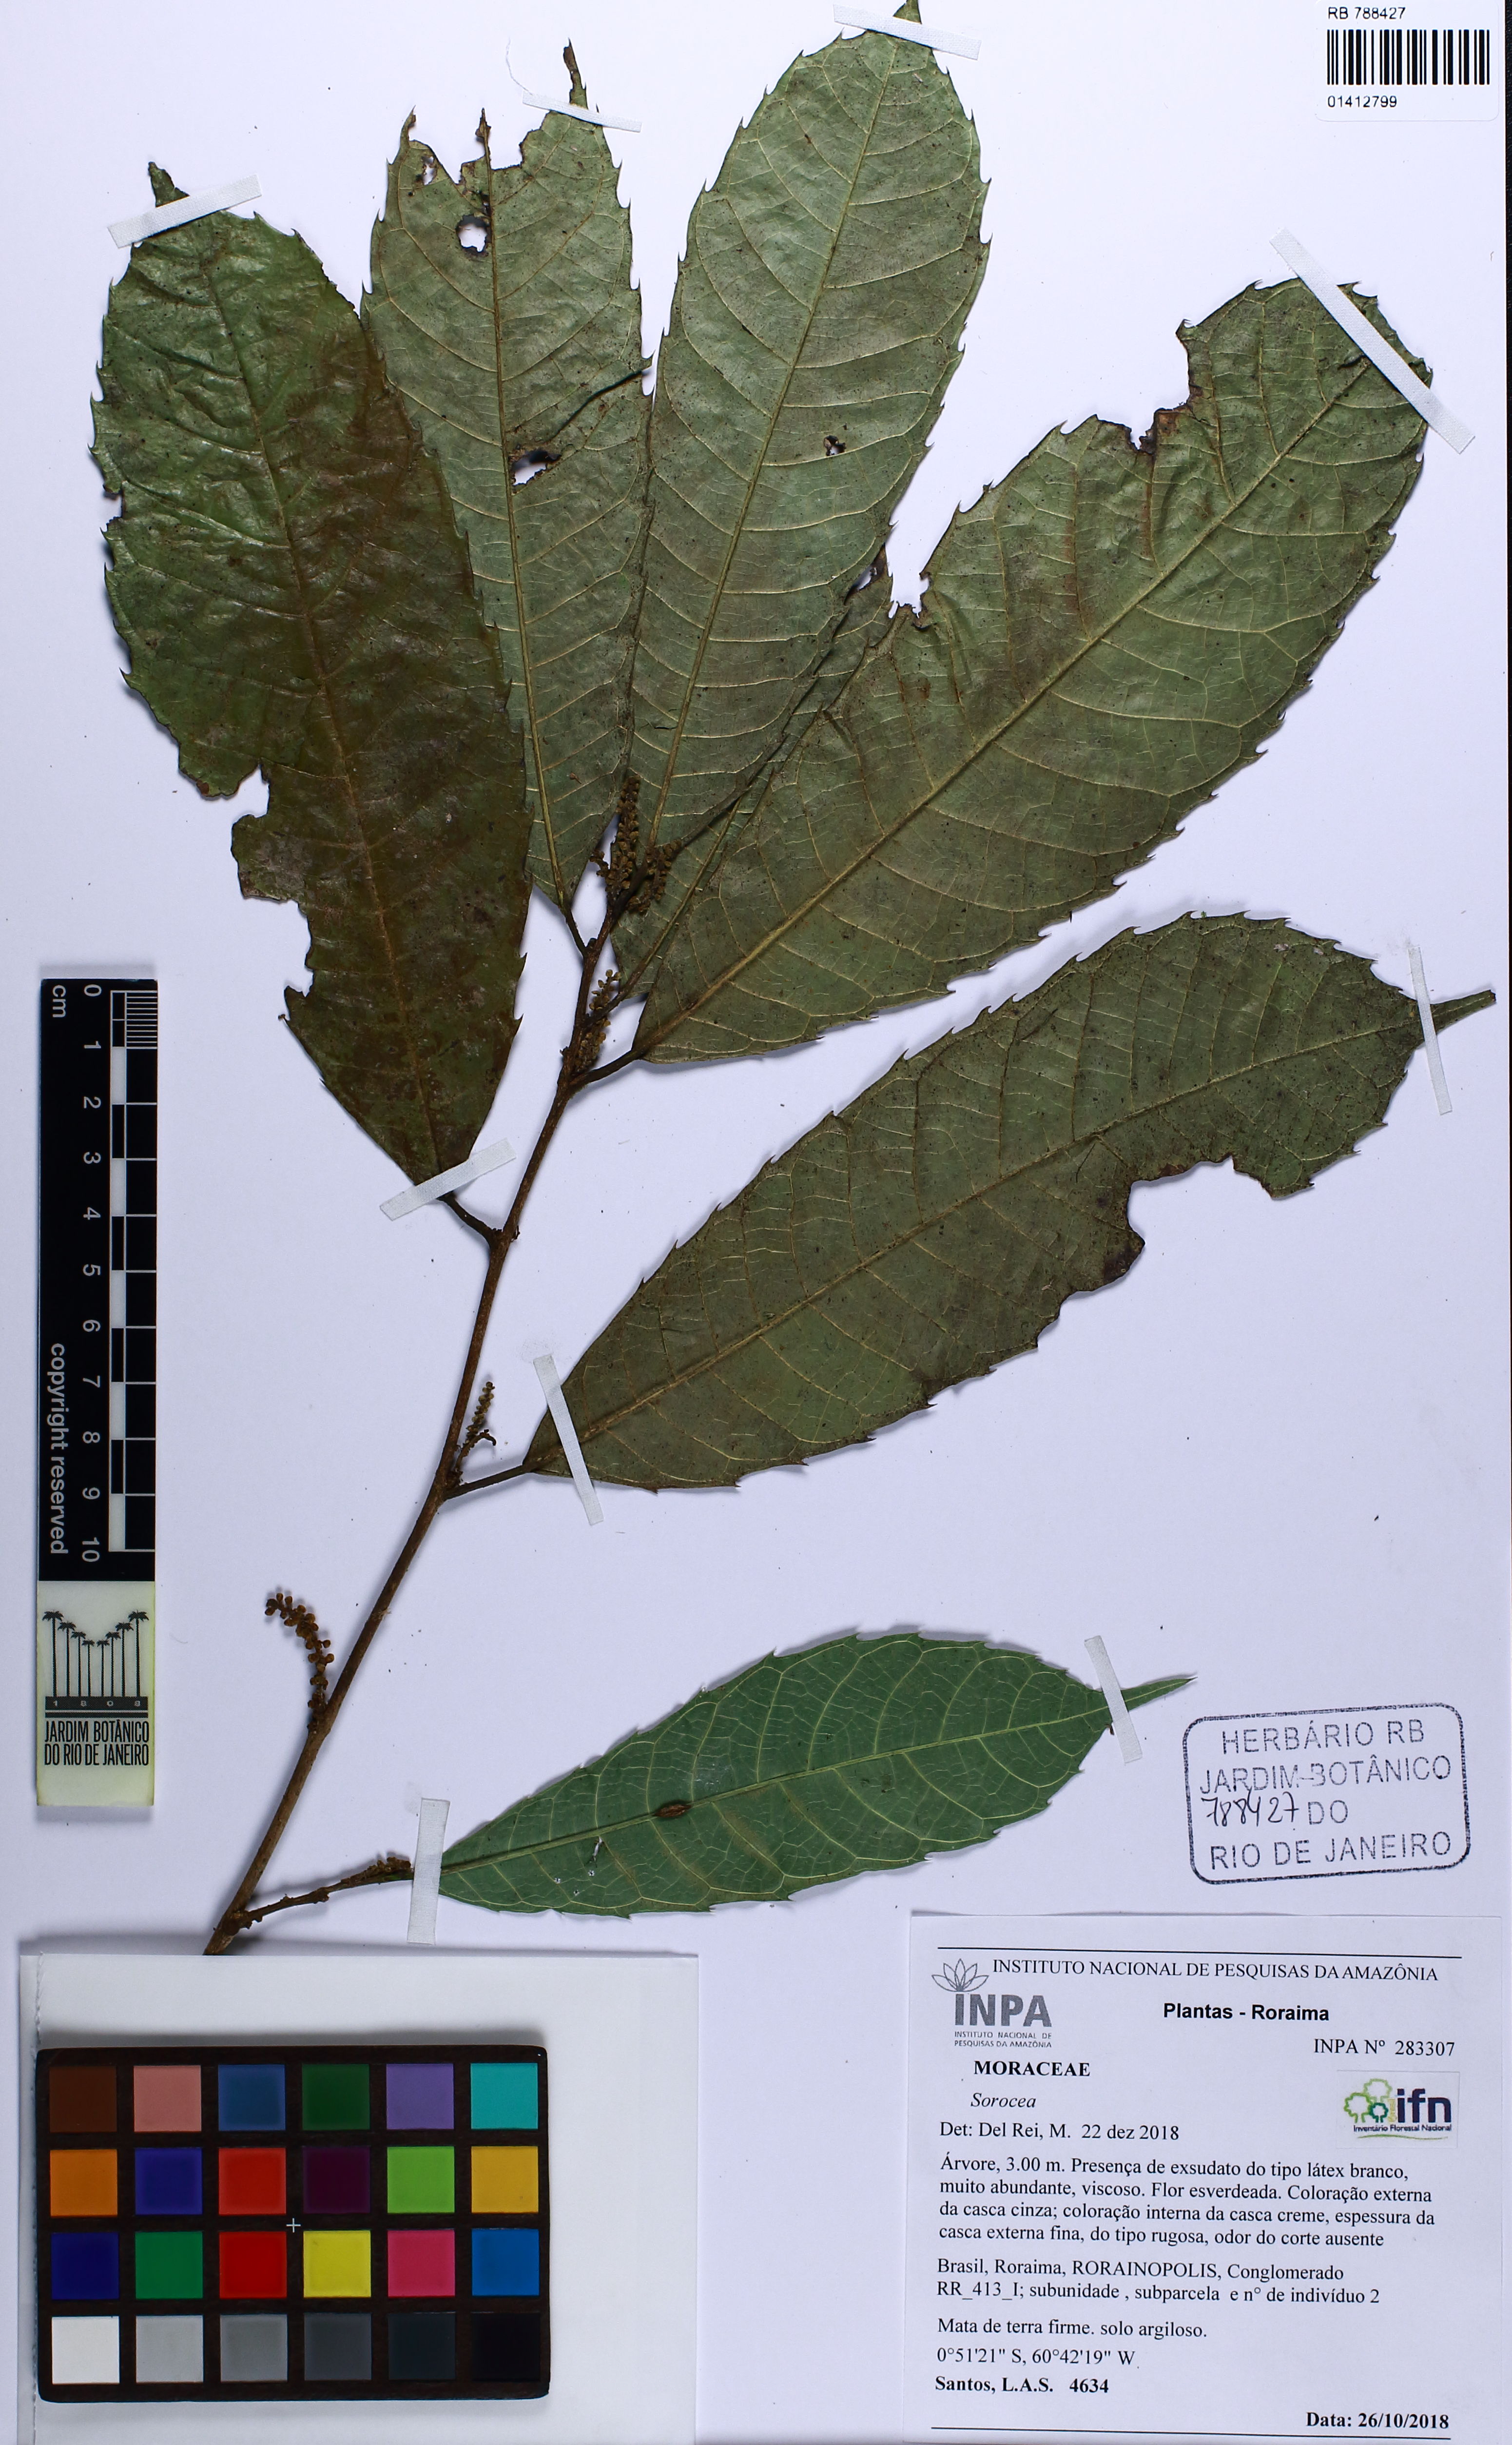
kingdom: Plantae
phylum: Tracheophyta
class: Magnoliopsida
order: Rosales
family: Moraceae
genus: Sorocea
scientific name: Sorocea
